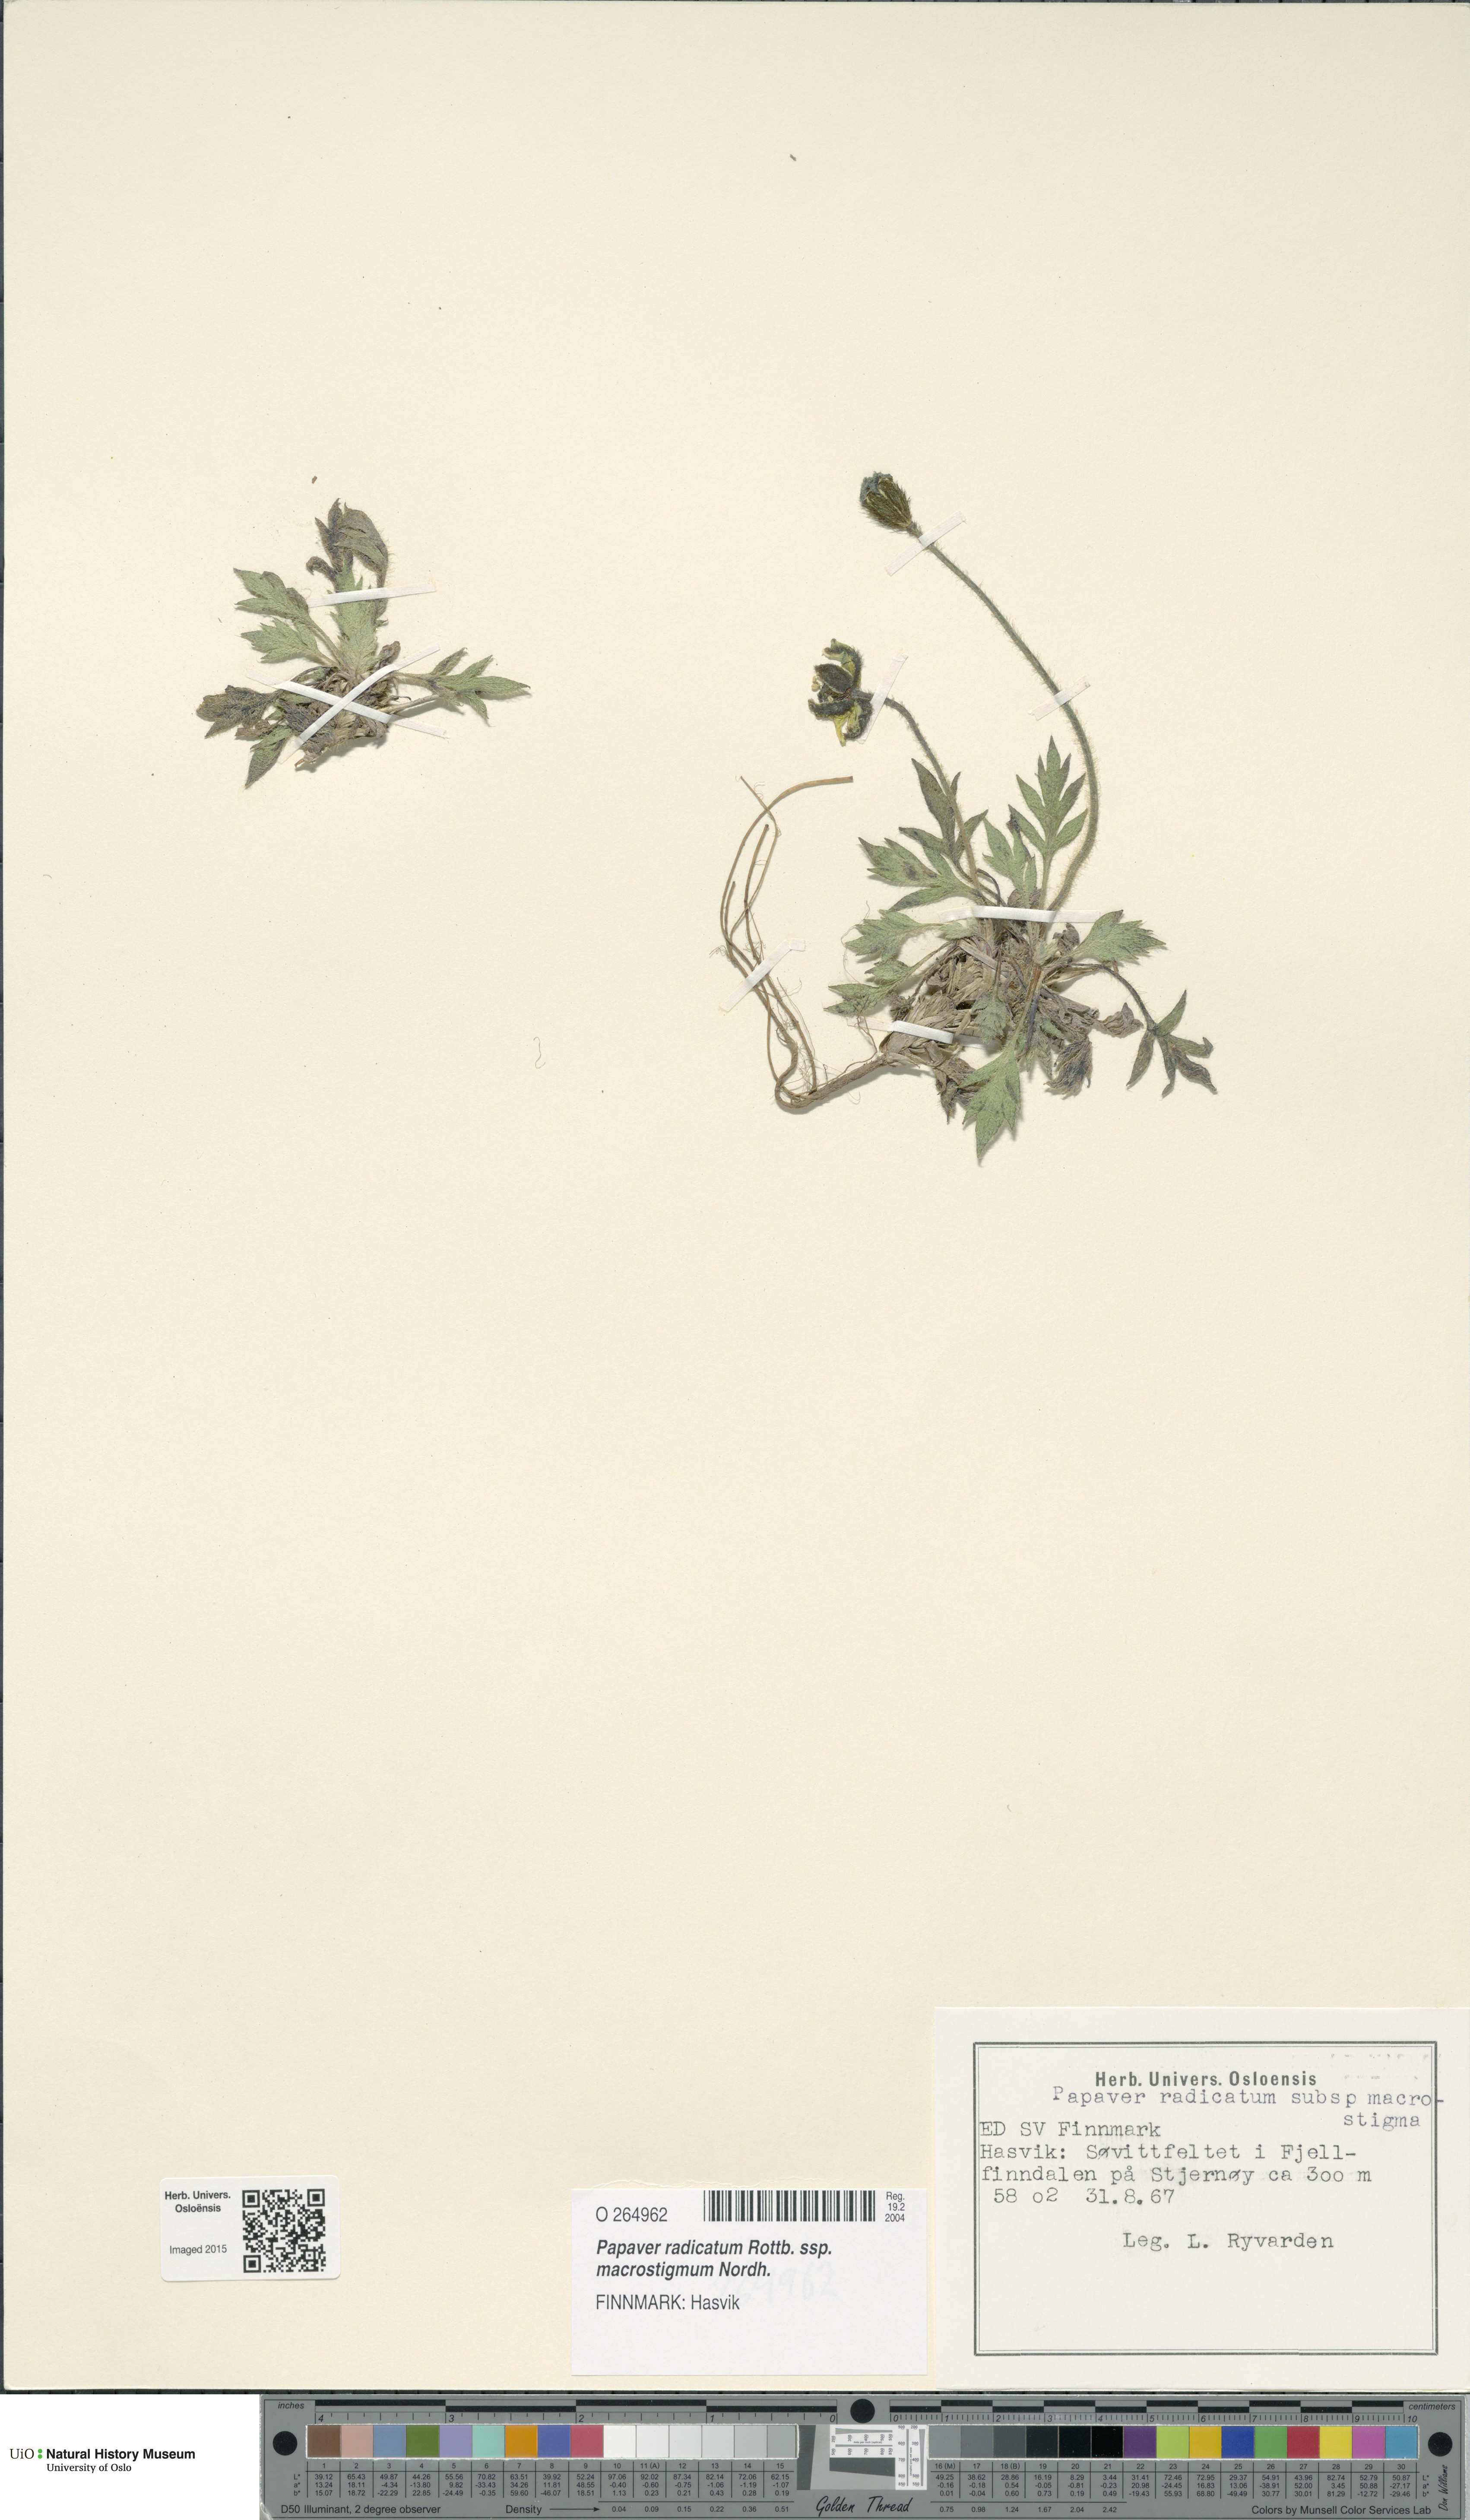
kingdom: Plantae
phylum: Tracheophyta
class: Magnoliopsida
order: Ranunculales
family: Papaveraceae
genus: Papaver
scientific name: Papaver radicatum
